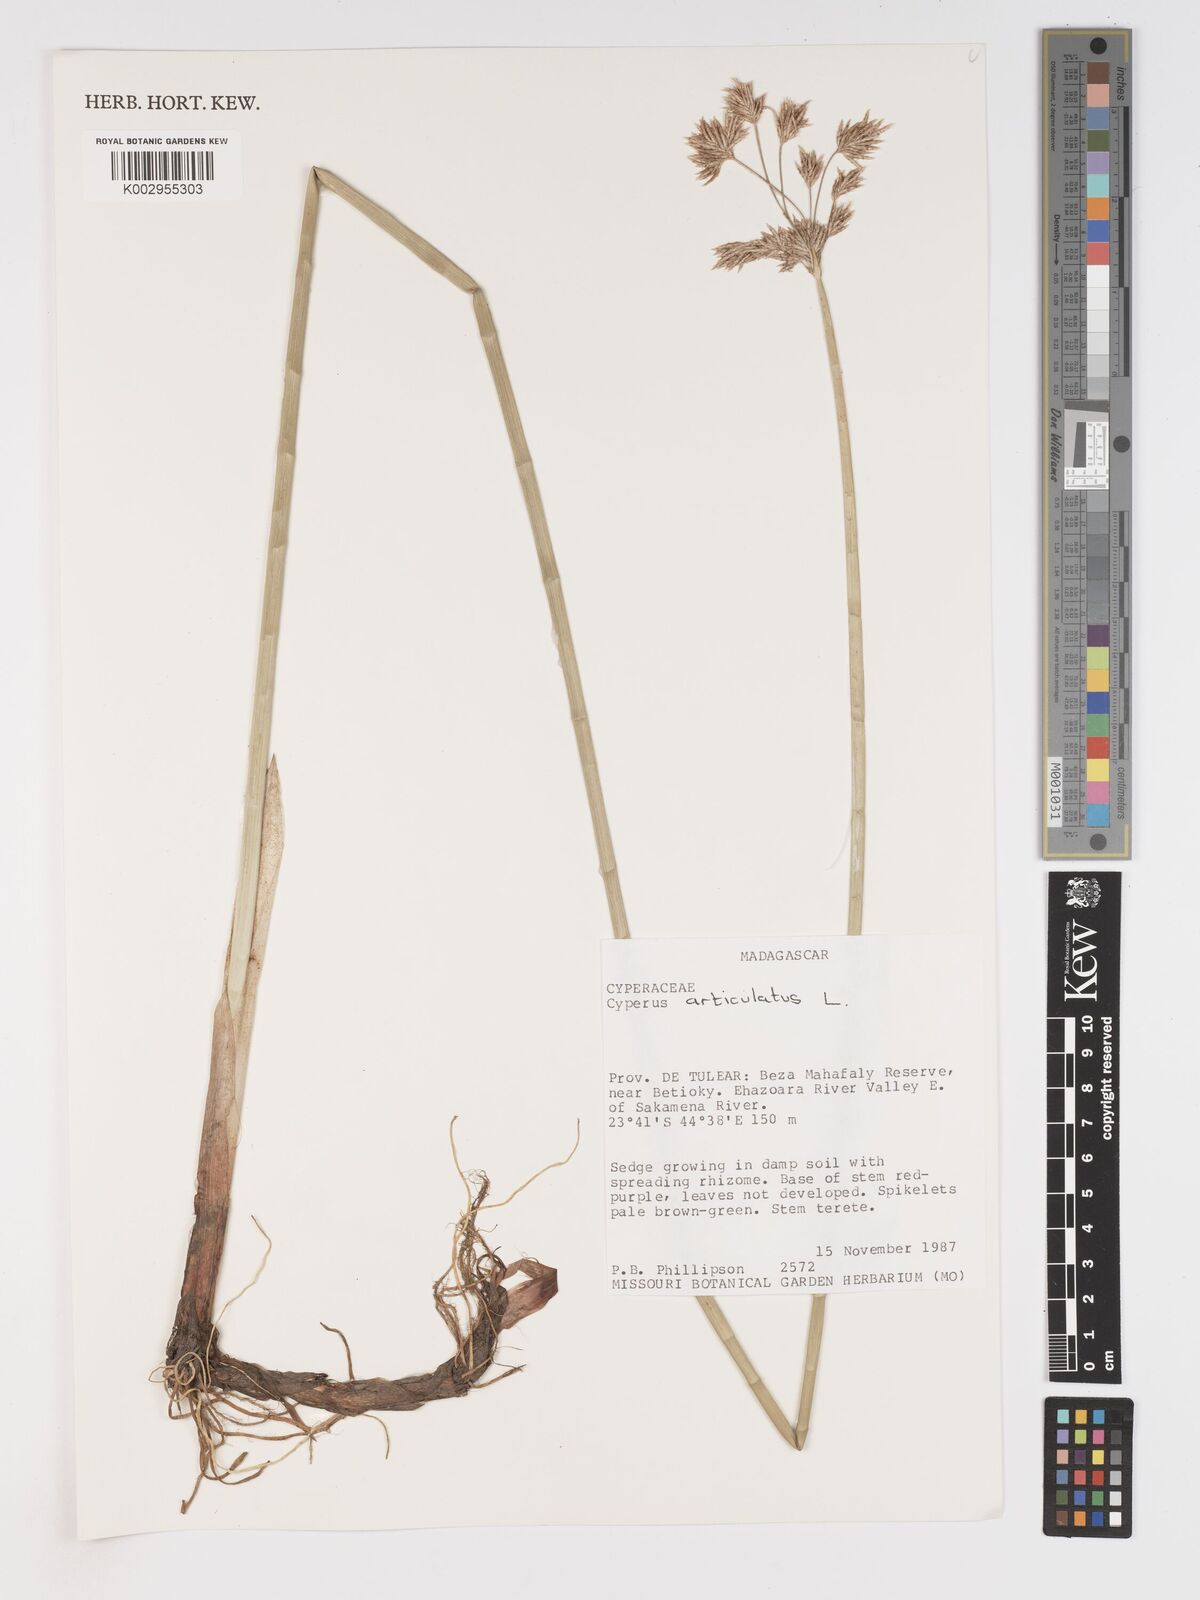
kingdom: Plantae
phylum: Tracheophyta
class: Liliopsida
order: Poales
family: Cyperaceae
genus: Cyperus
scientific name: Cyperus articulatus
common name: Jointed flatsedge
